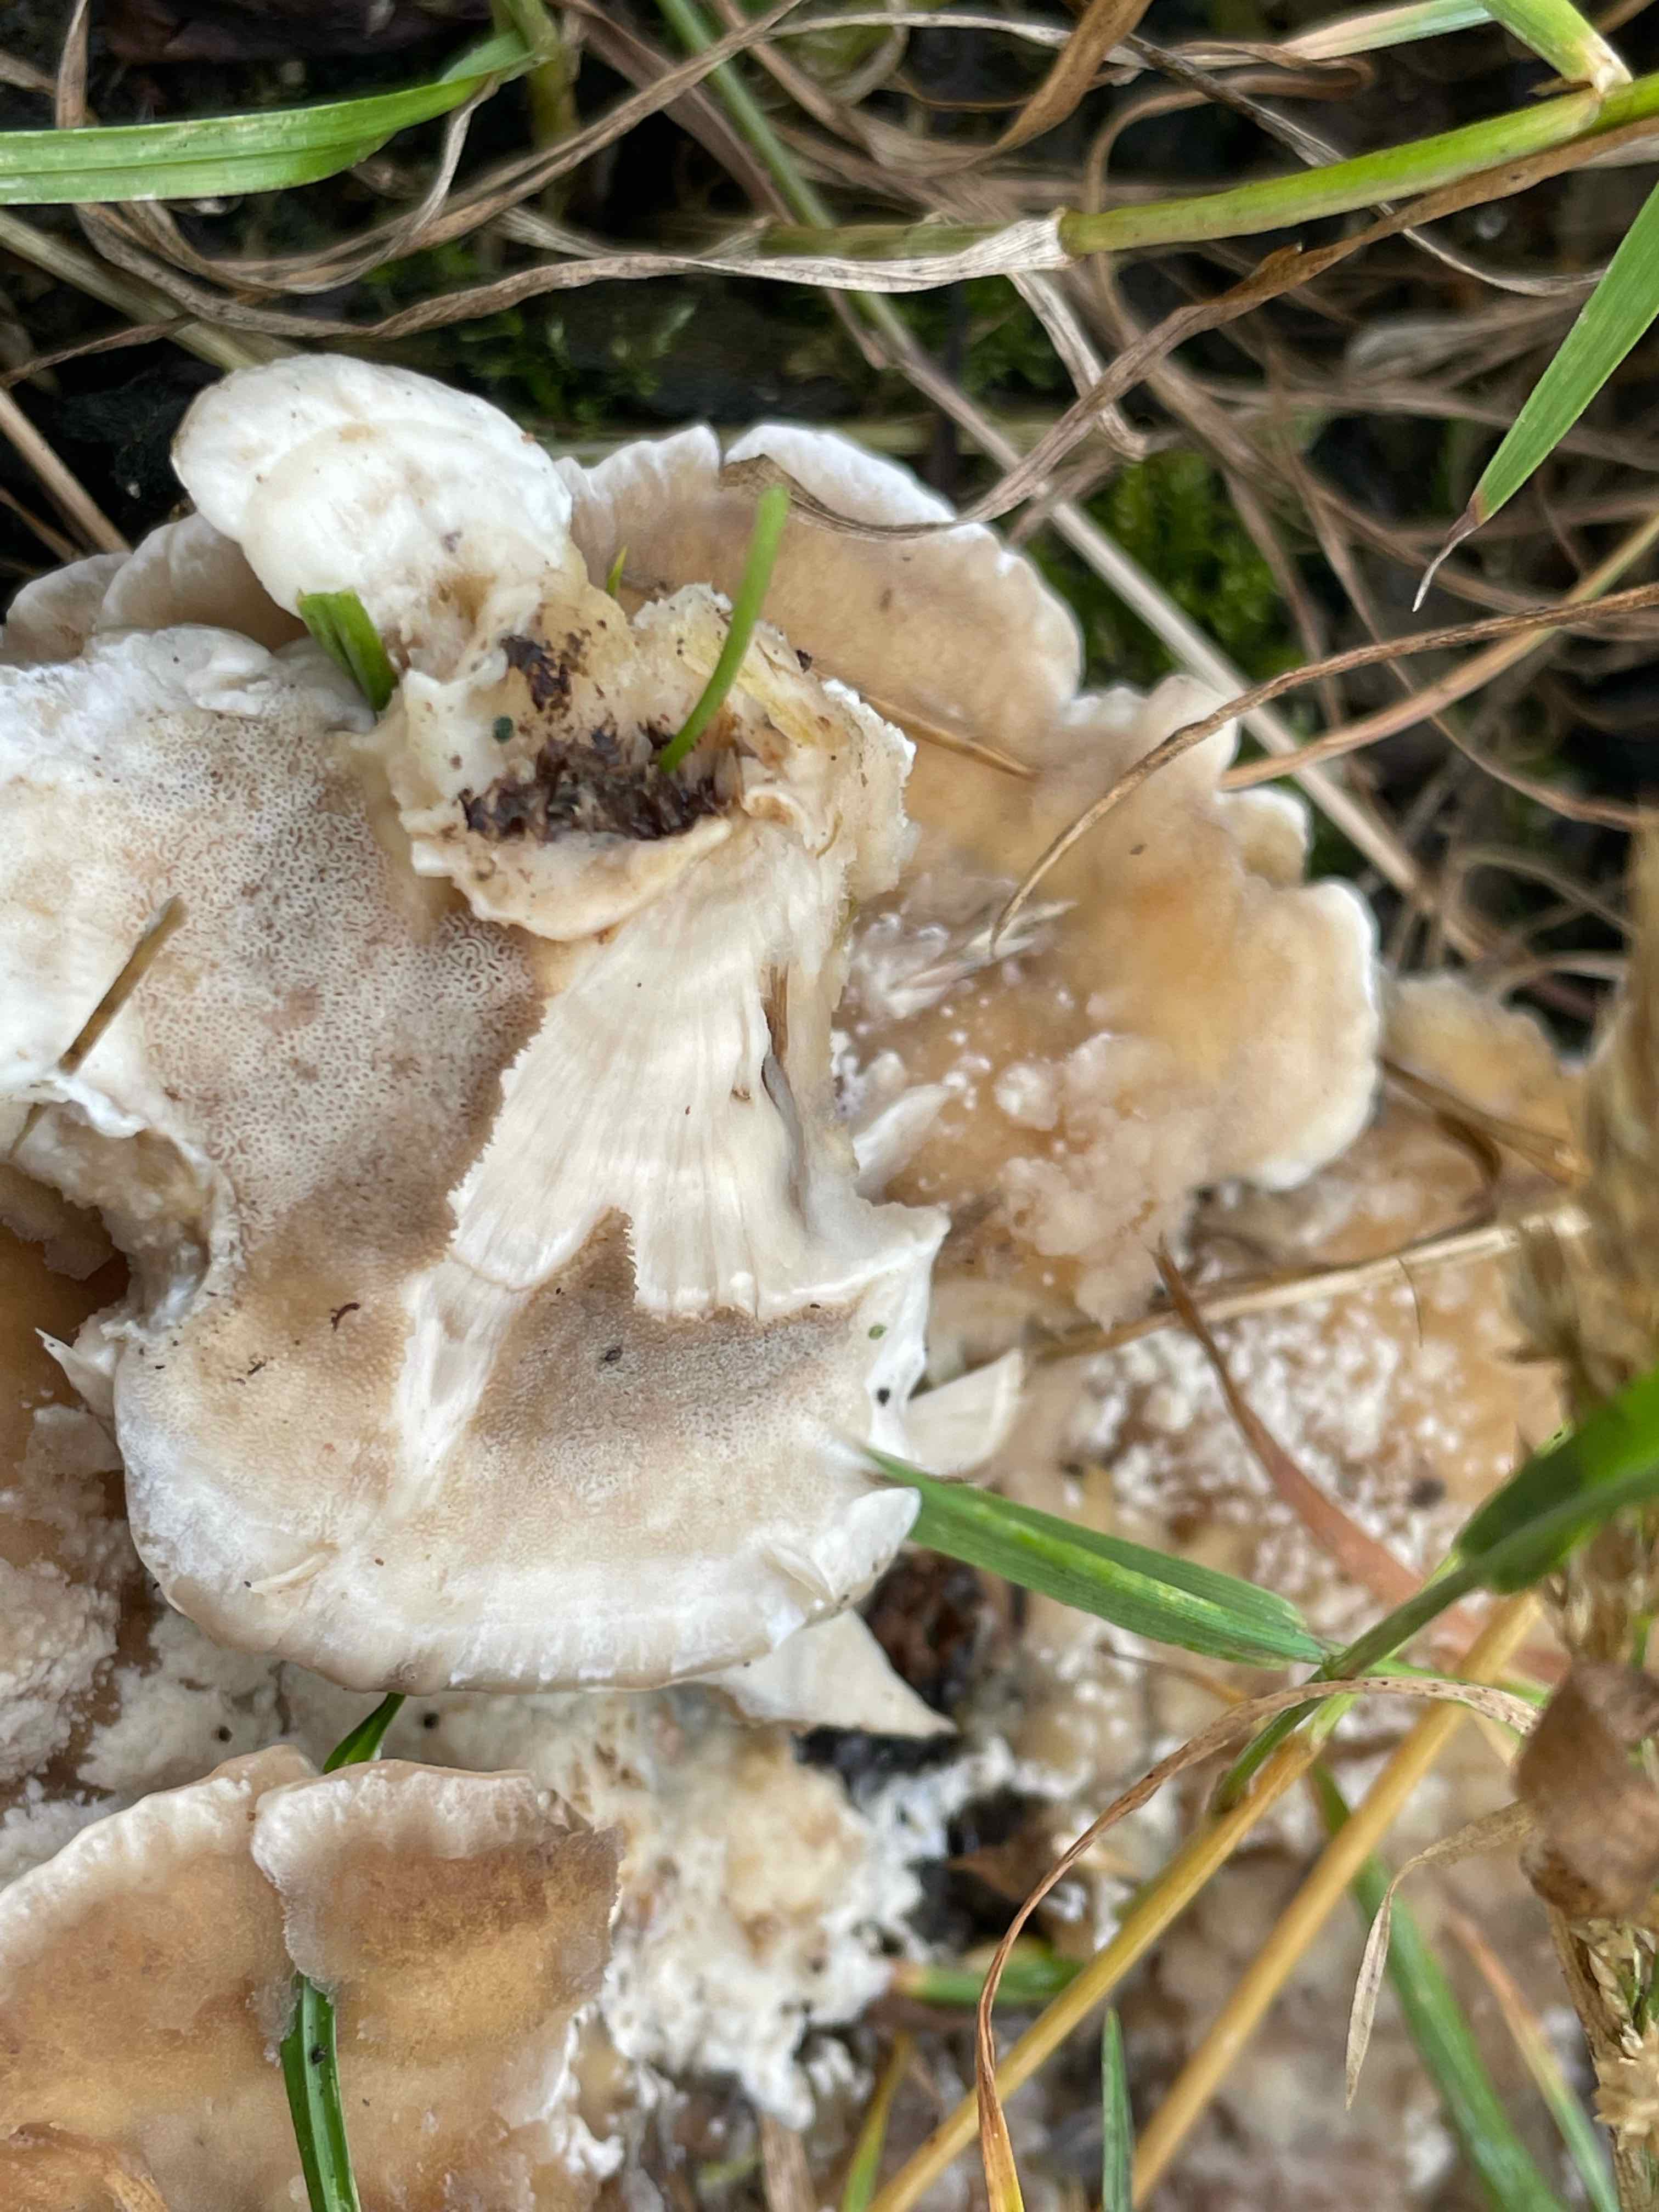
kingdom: Fungi
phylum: Basidiomycota
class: Agaricomycetes
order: Polyporales
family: Meripilaceae
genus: Meripilus
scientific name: Meripilus giganteus
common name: kæmpeporesvamp
